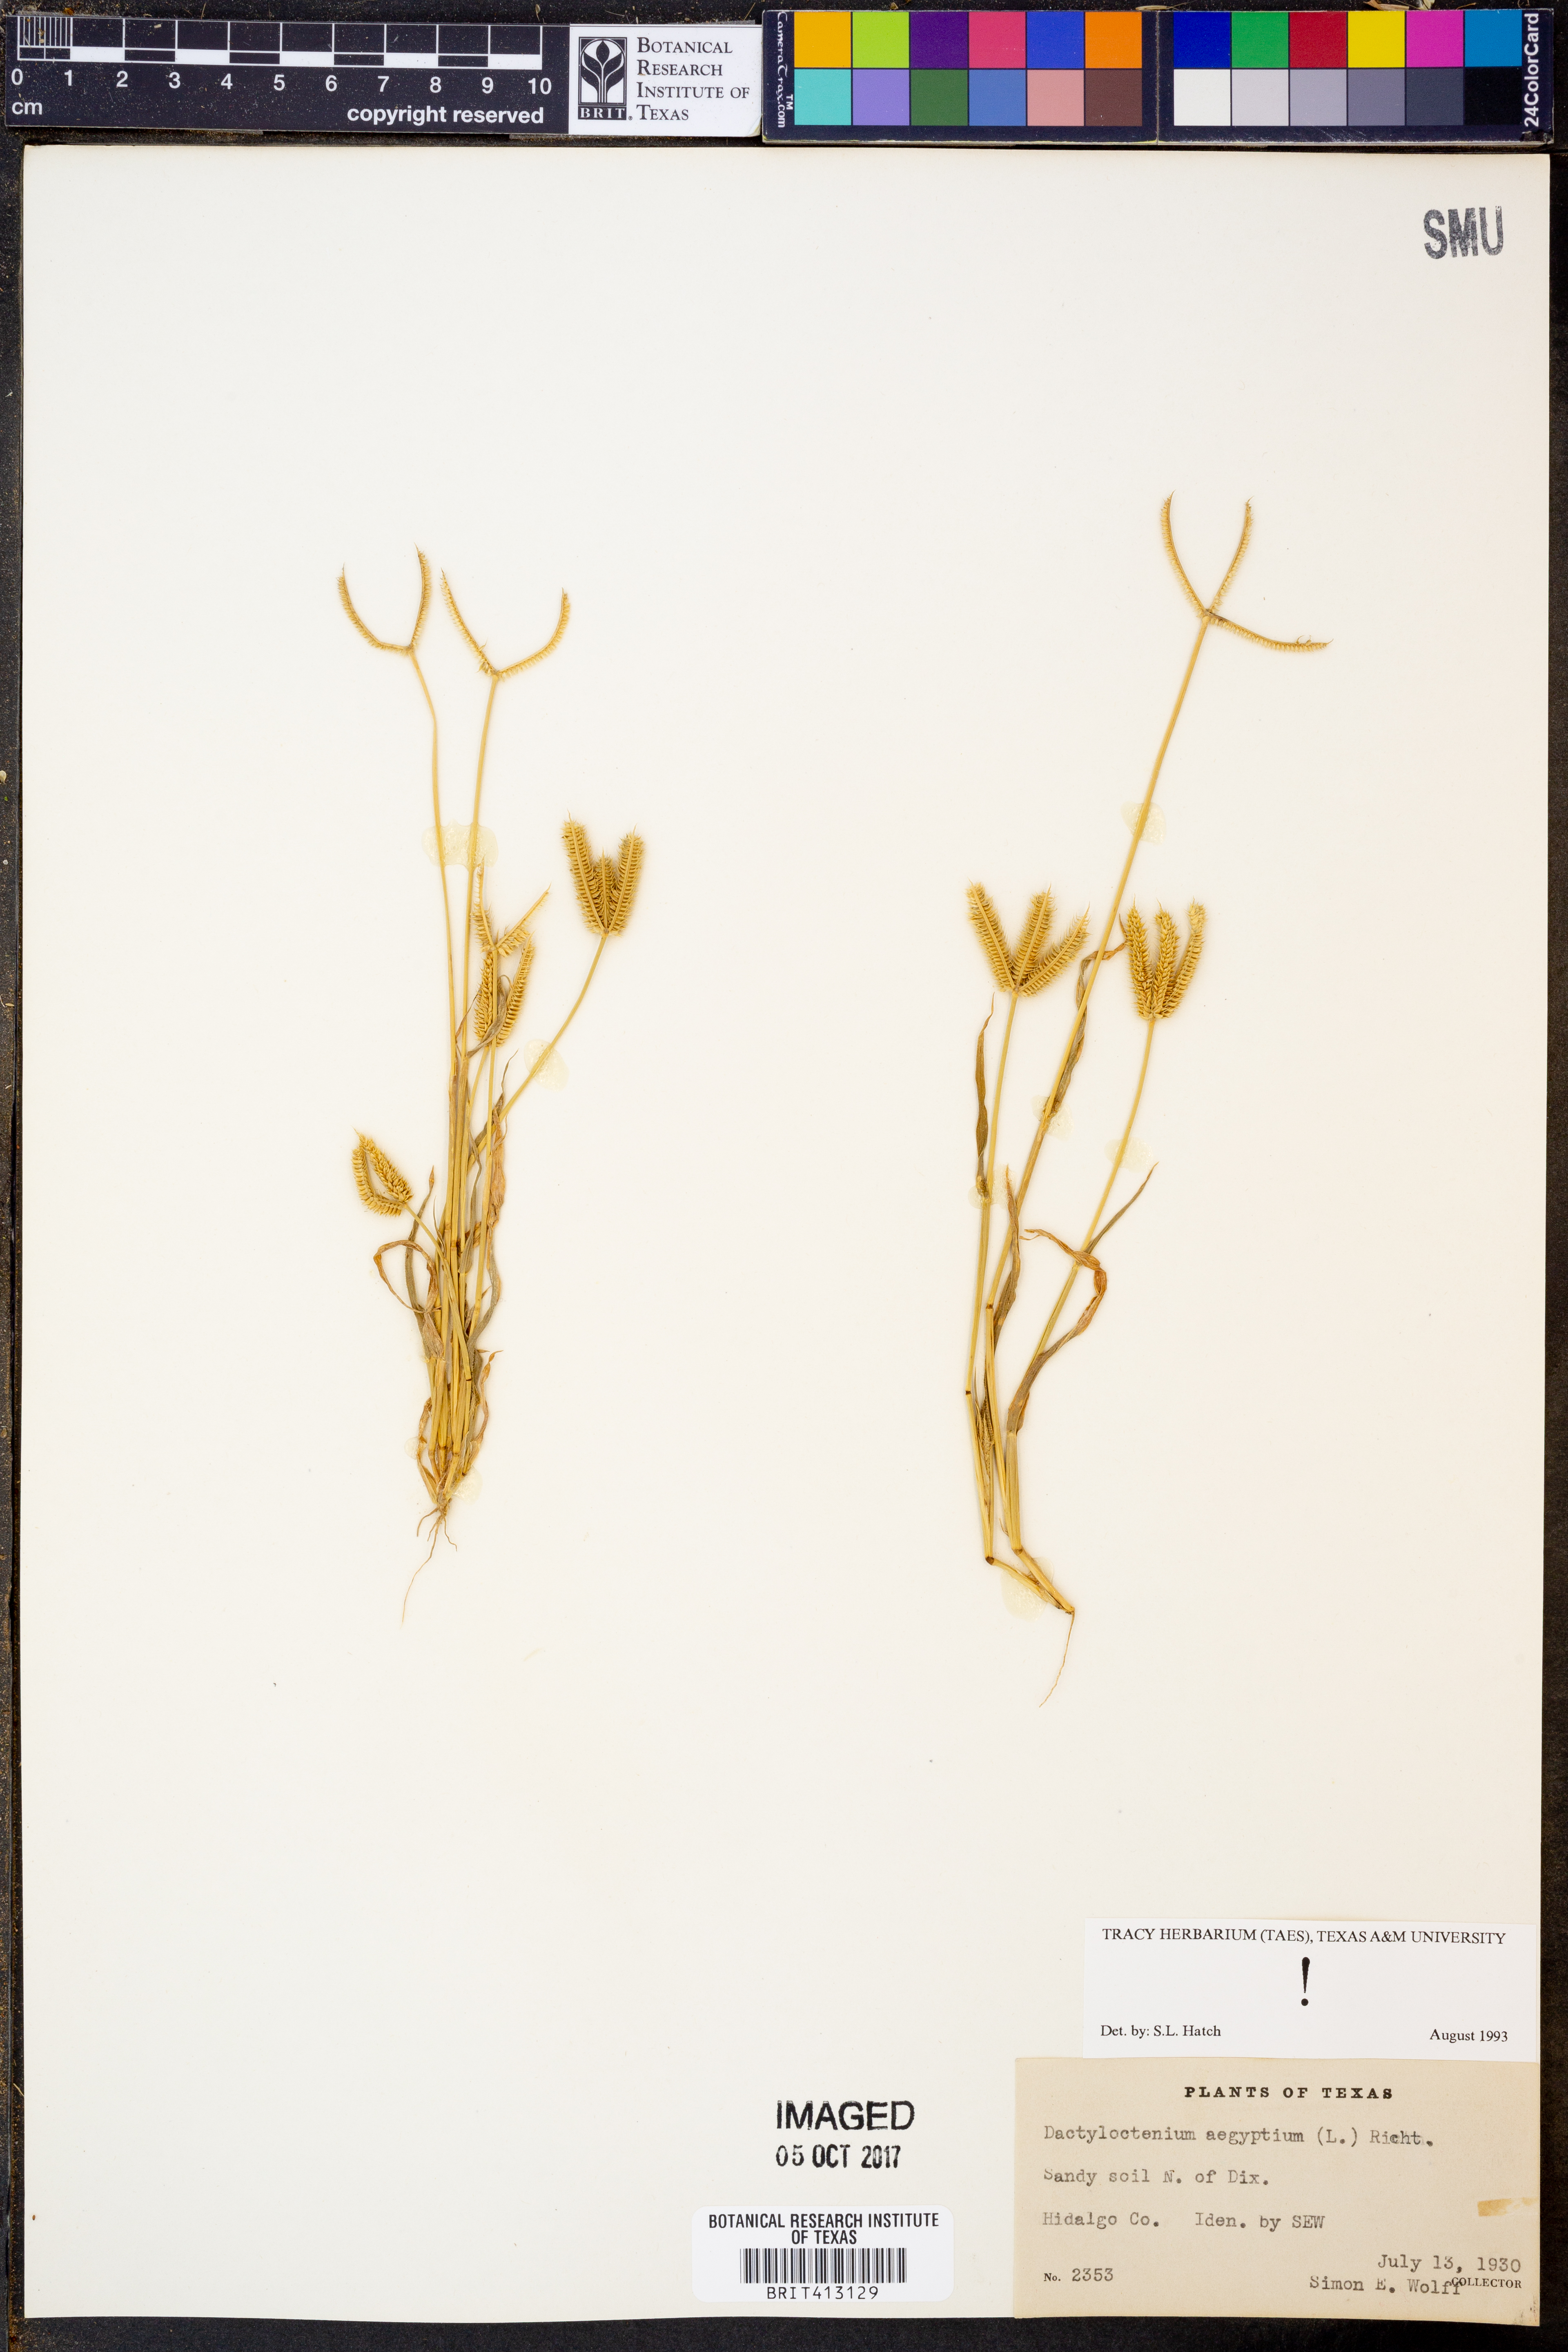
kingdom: Plantae
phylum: Tracheophyta
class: Liliopsida
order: Poales
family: Poaceae
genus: Dactyloctenium
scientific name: Dactyloctenium aegyptium
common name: Egyptian grass
